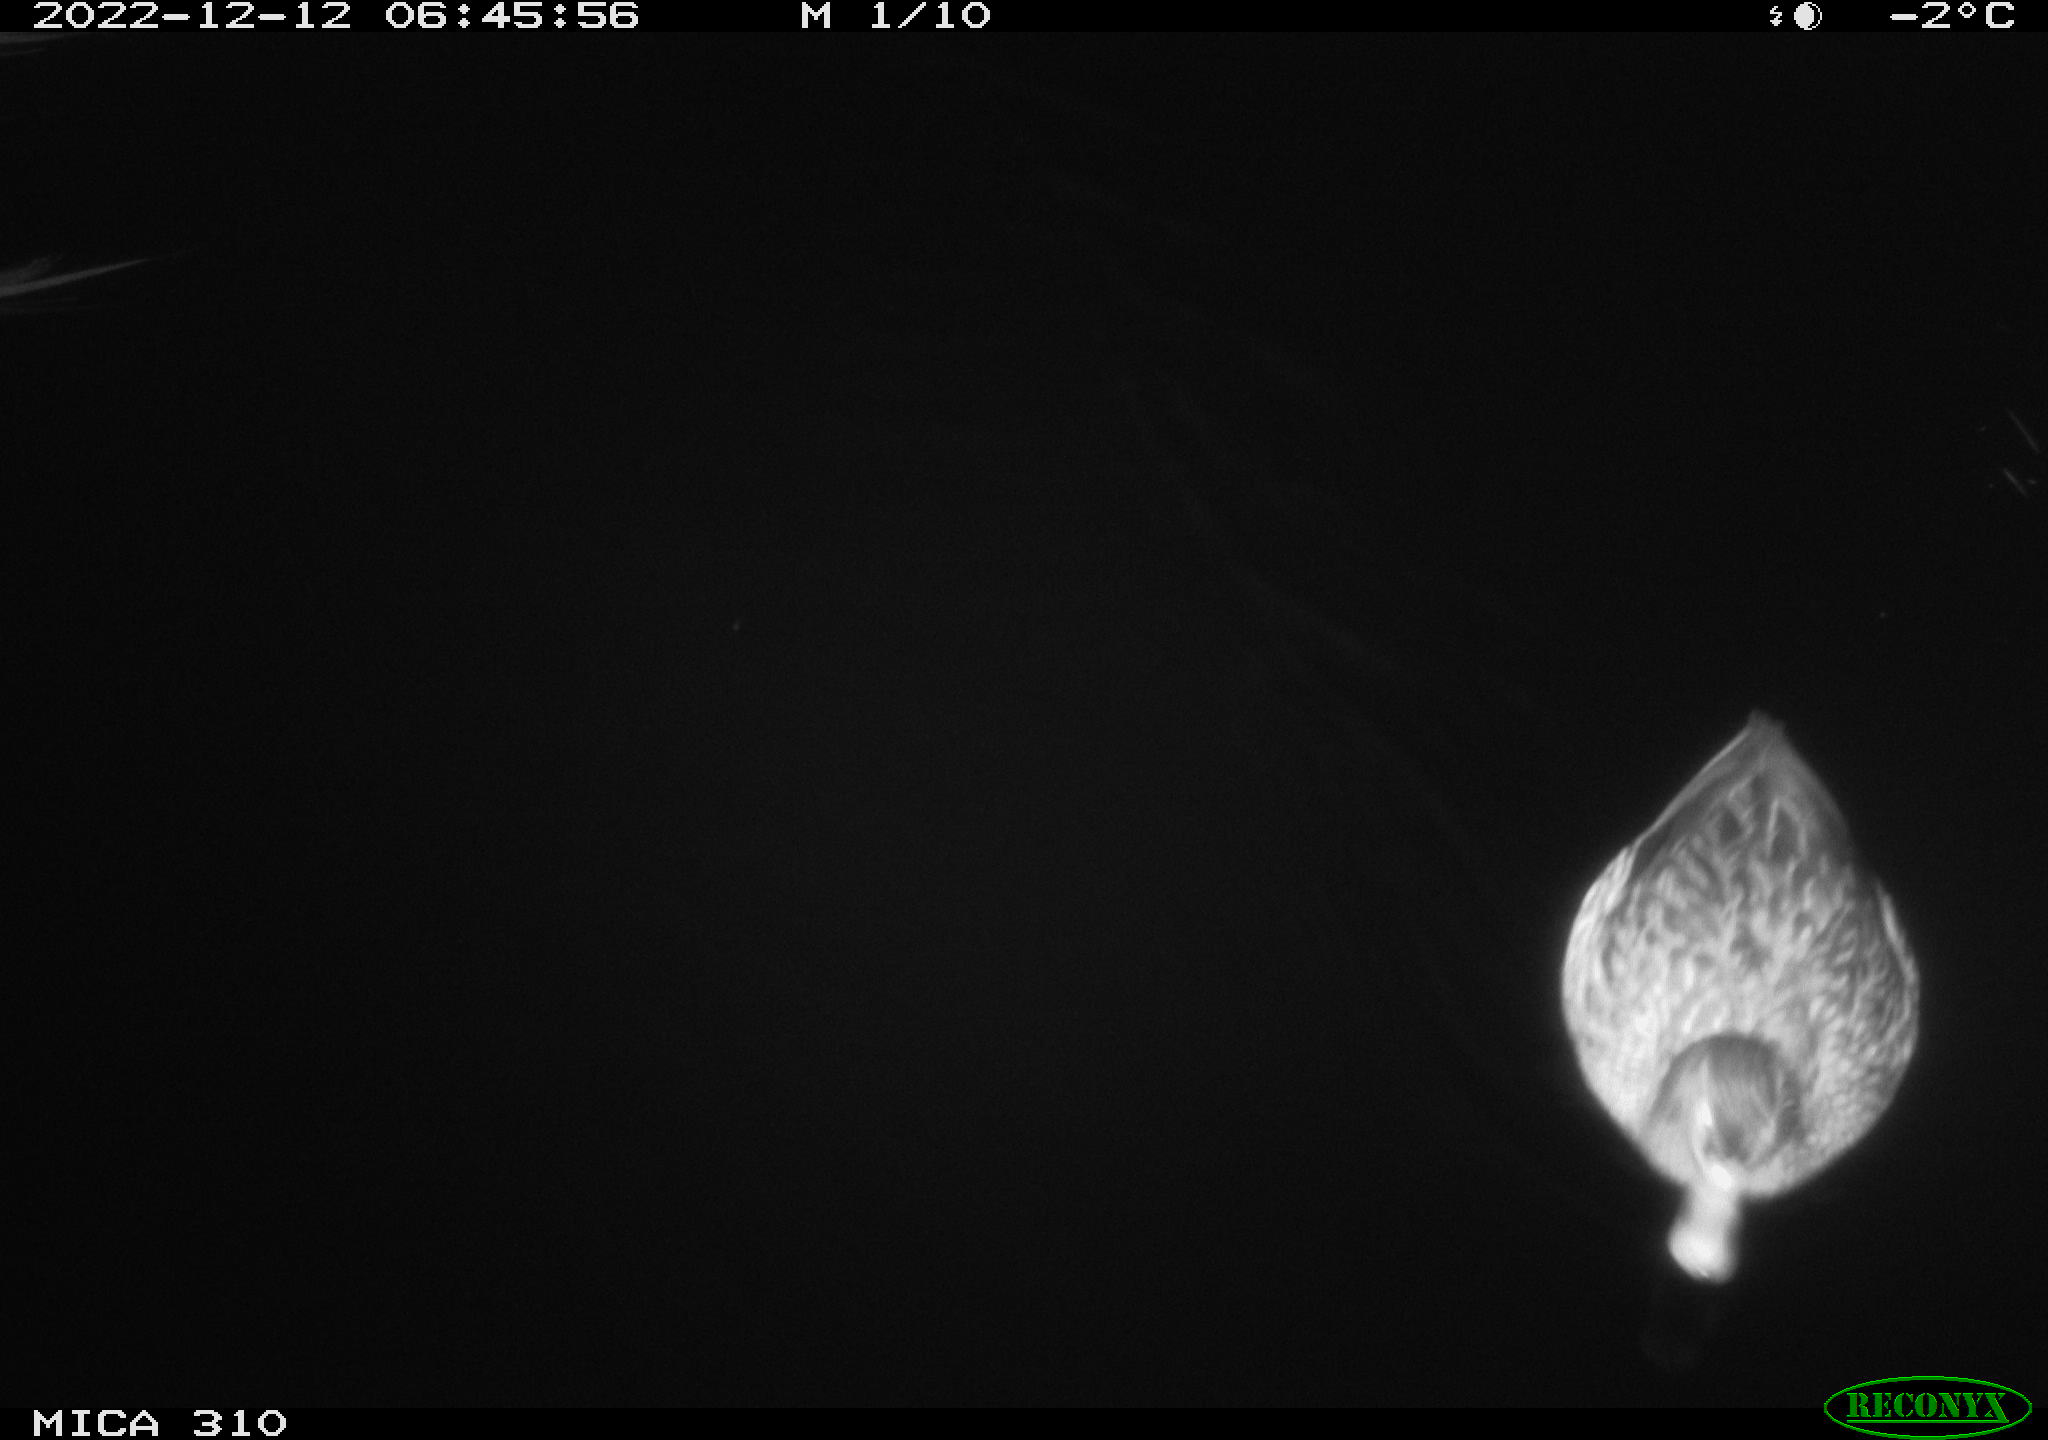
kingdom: Animalia
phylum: Chordata
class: Aves
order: Anseriformes
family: Anatidae
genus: Anas
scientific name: Anas
